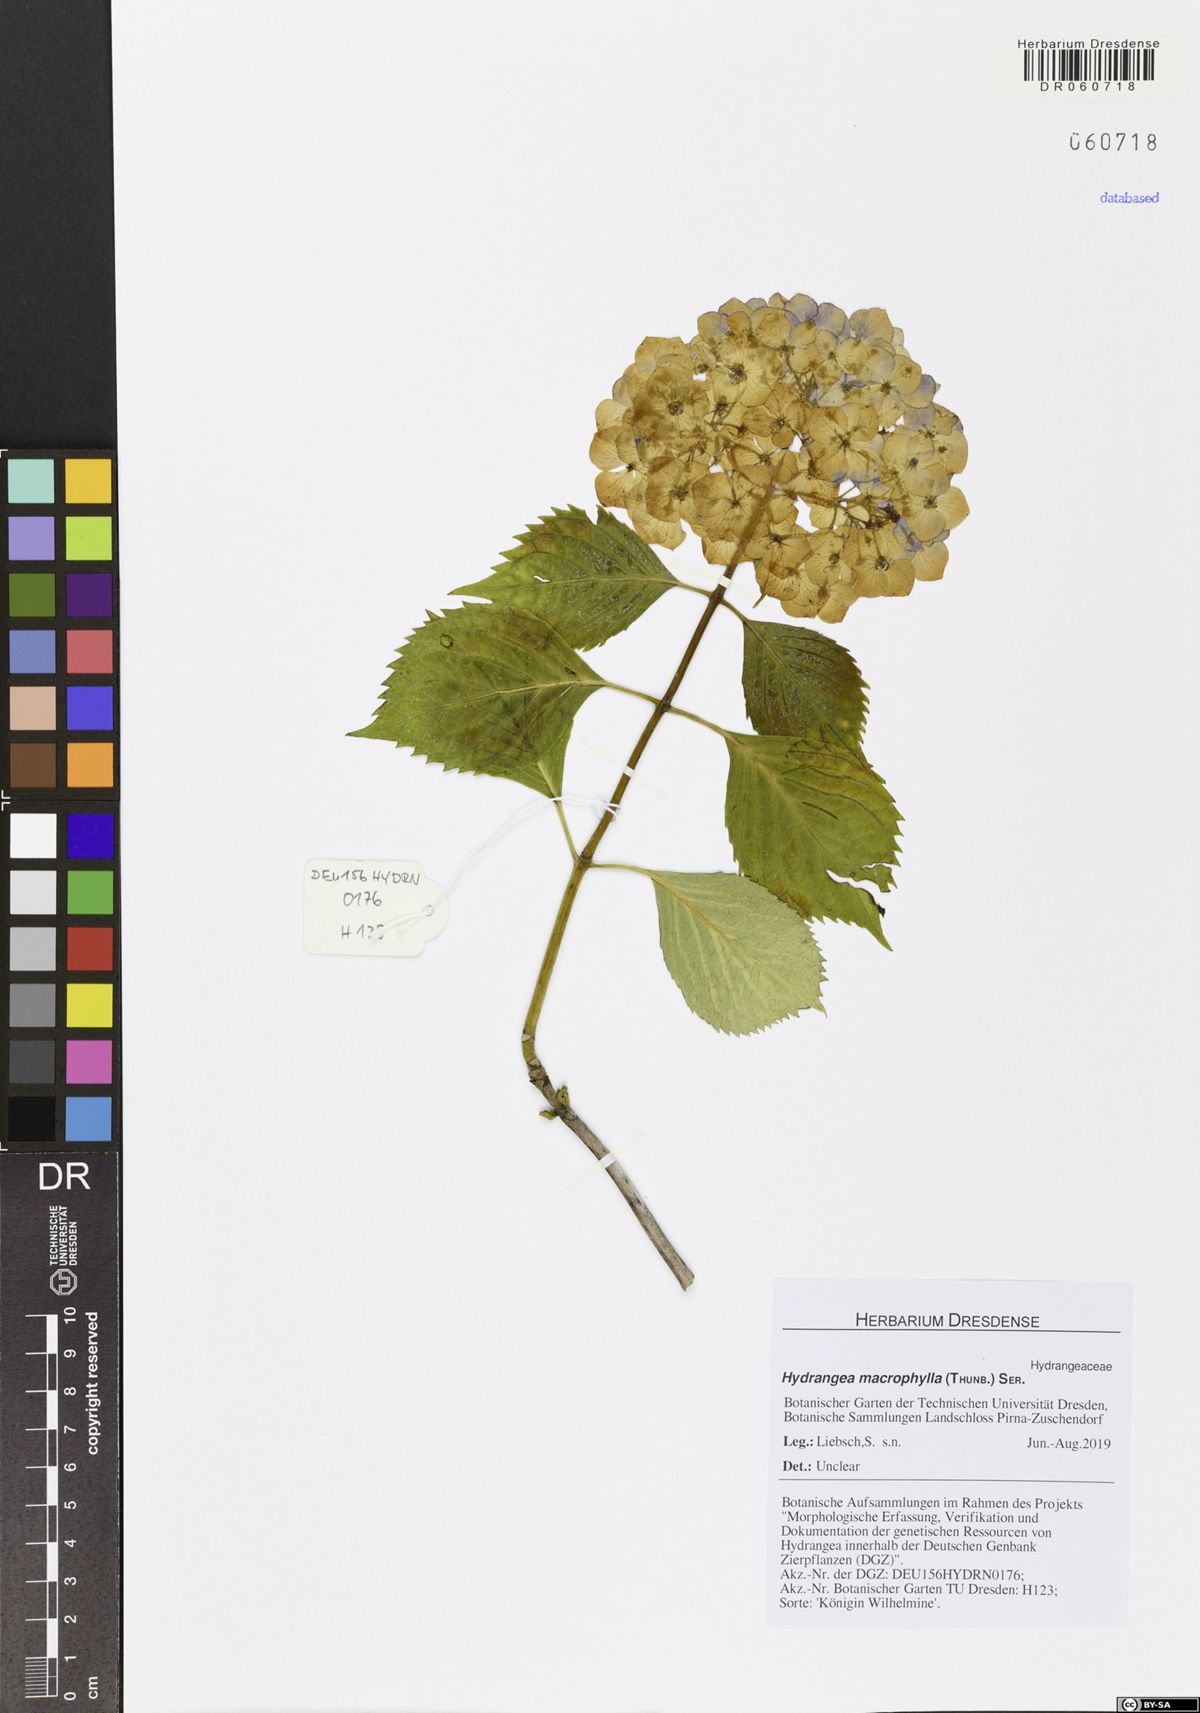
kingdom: Plantae
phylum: Tracheophyta
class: Magnoliopsida
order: Cornales
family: Hydrangeaceae
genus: Hydrangea
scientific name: Hydrangea macrophylla
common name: Hydrangea
